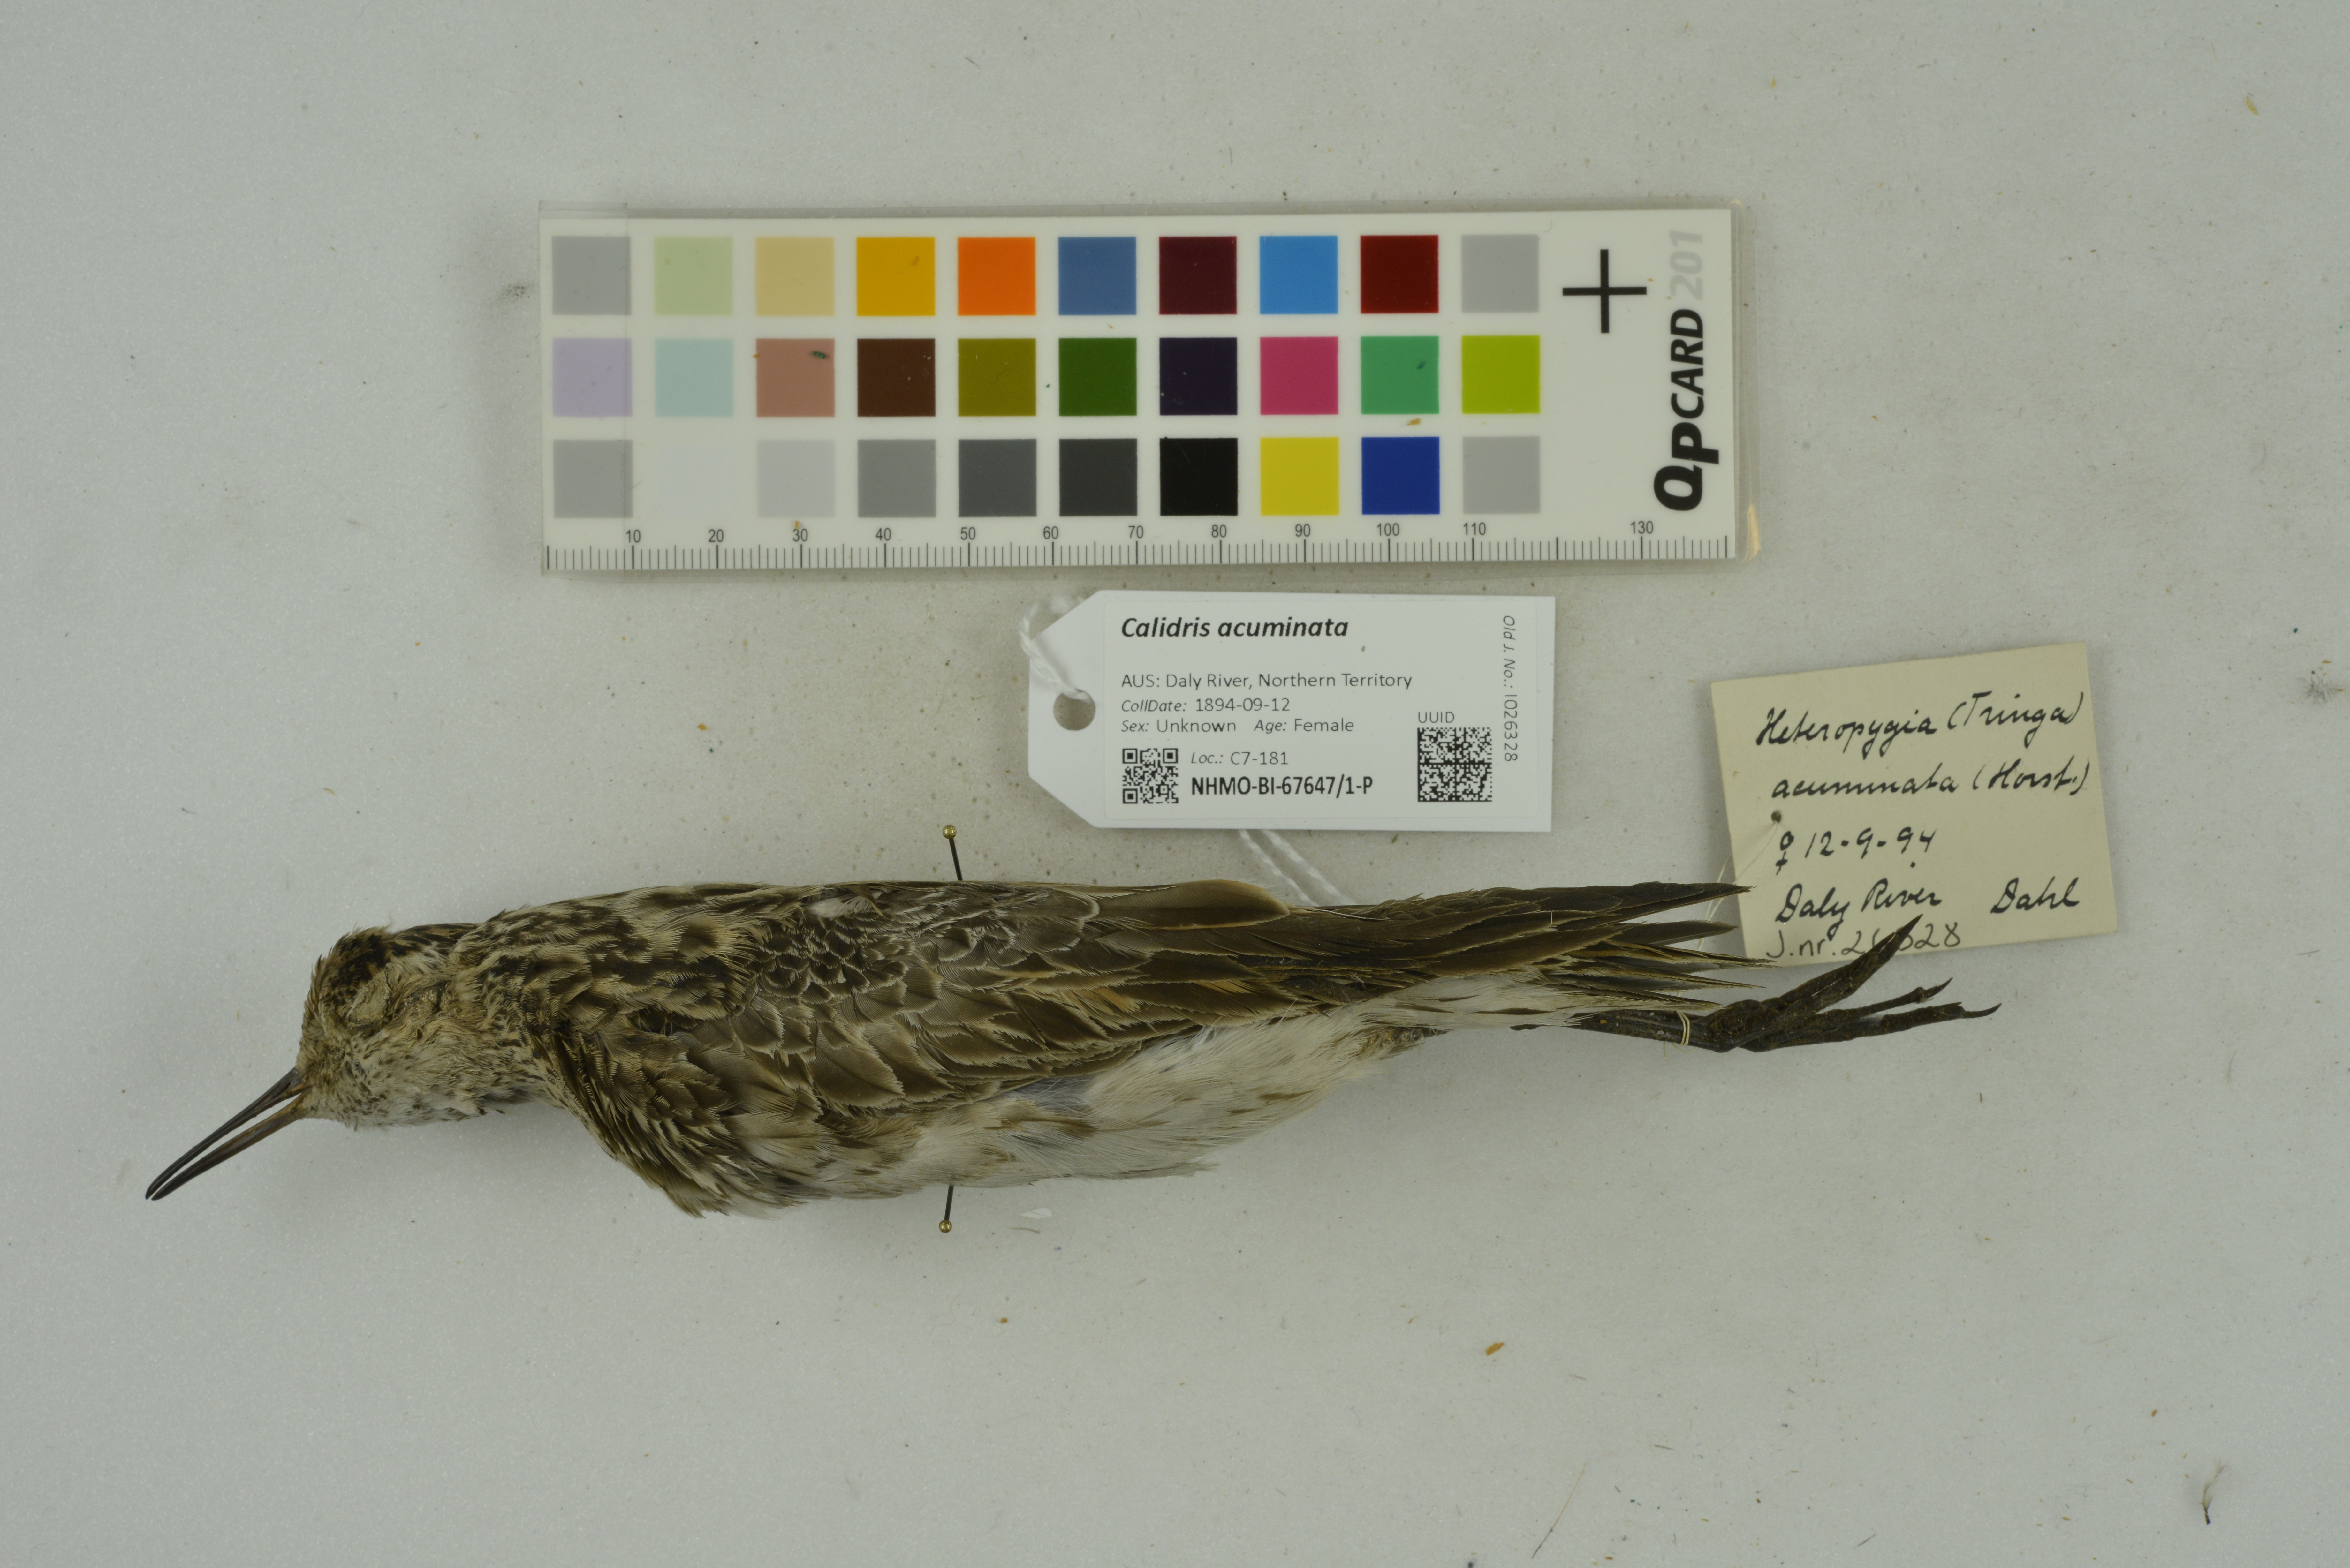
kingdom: Animalia
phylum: Chordata
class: Aves
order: Charadriiformes
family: Scolopacidae
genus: Calidris
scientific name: Calidris acuminata
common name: Sharp-tailed sandpiper
